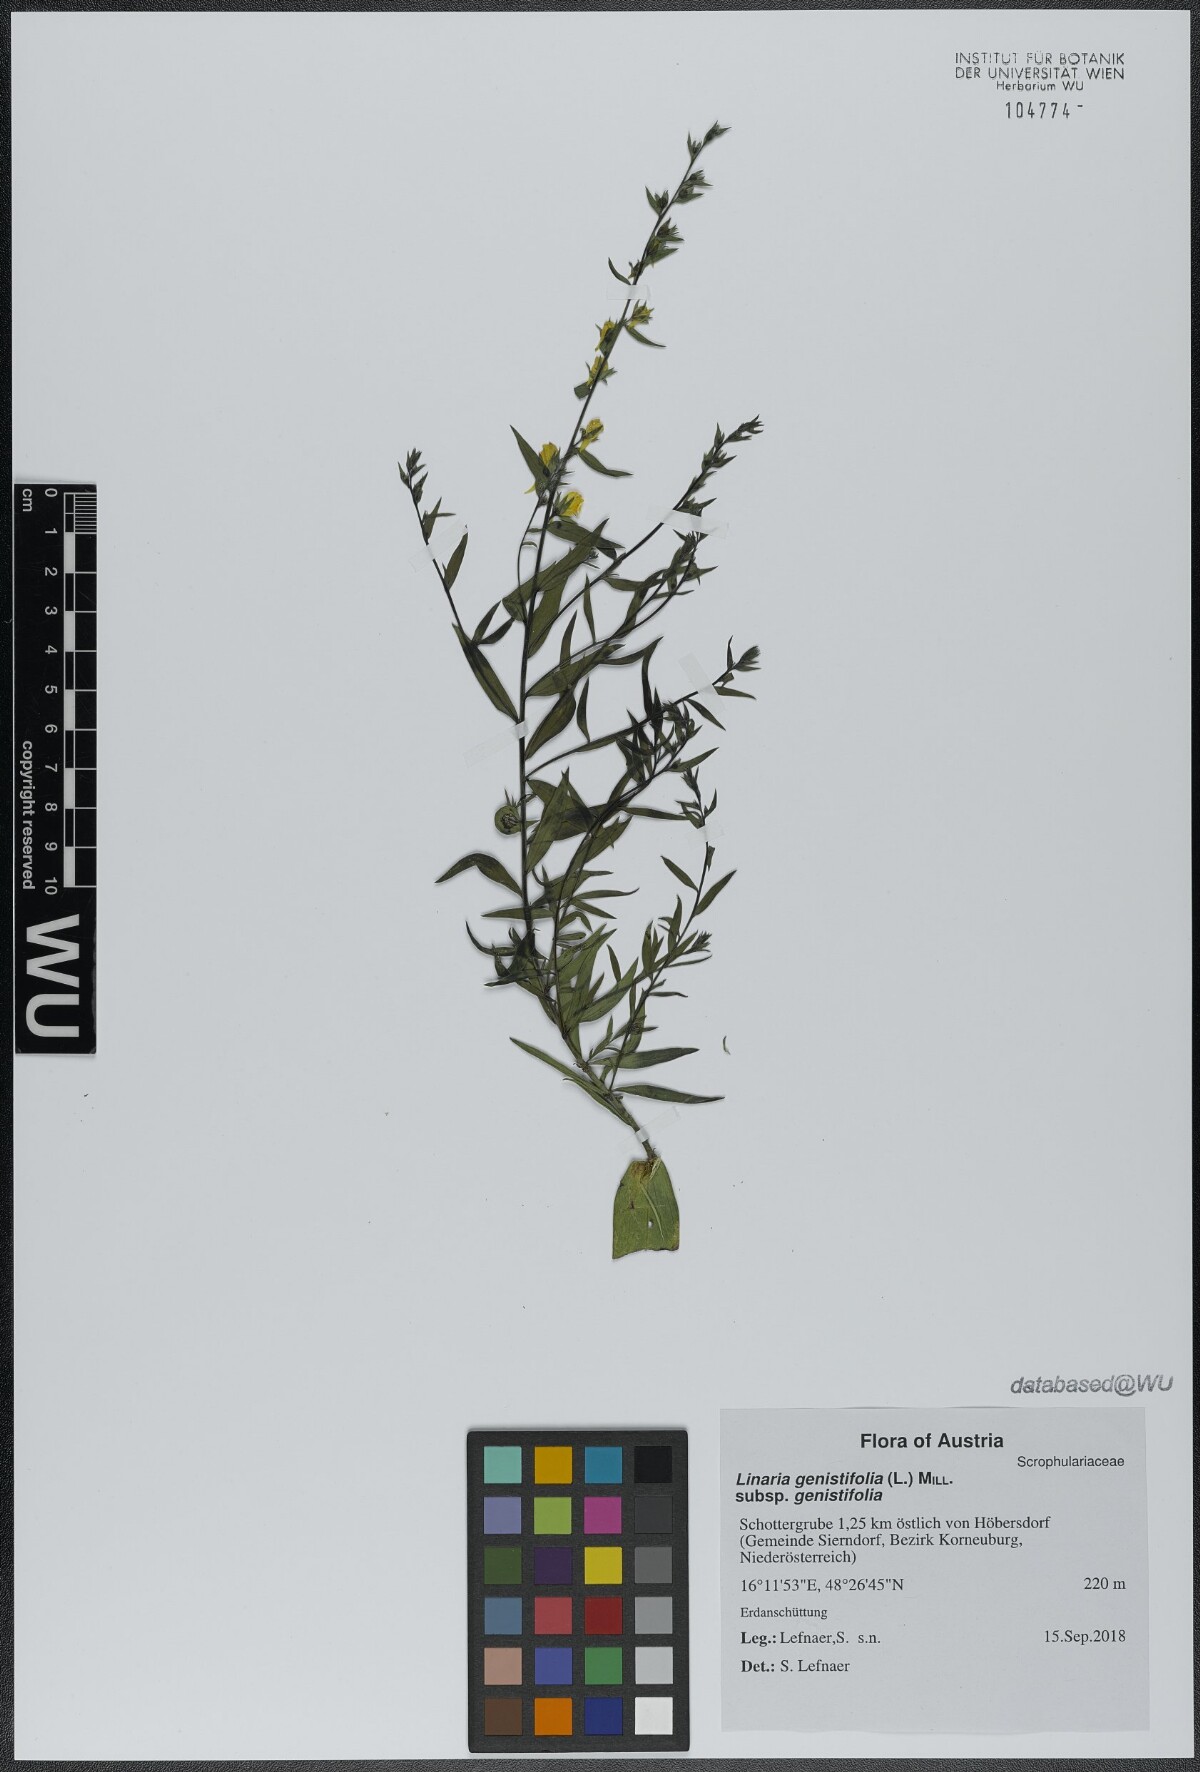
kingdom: Plantae
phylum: Tracheophyta
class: Magnoliopsida
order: Lamiales
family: Plantaginaceae
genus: Linaria
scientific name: Linaria genistifolia
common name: Broomleaf toadflax
